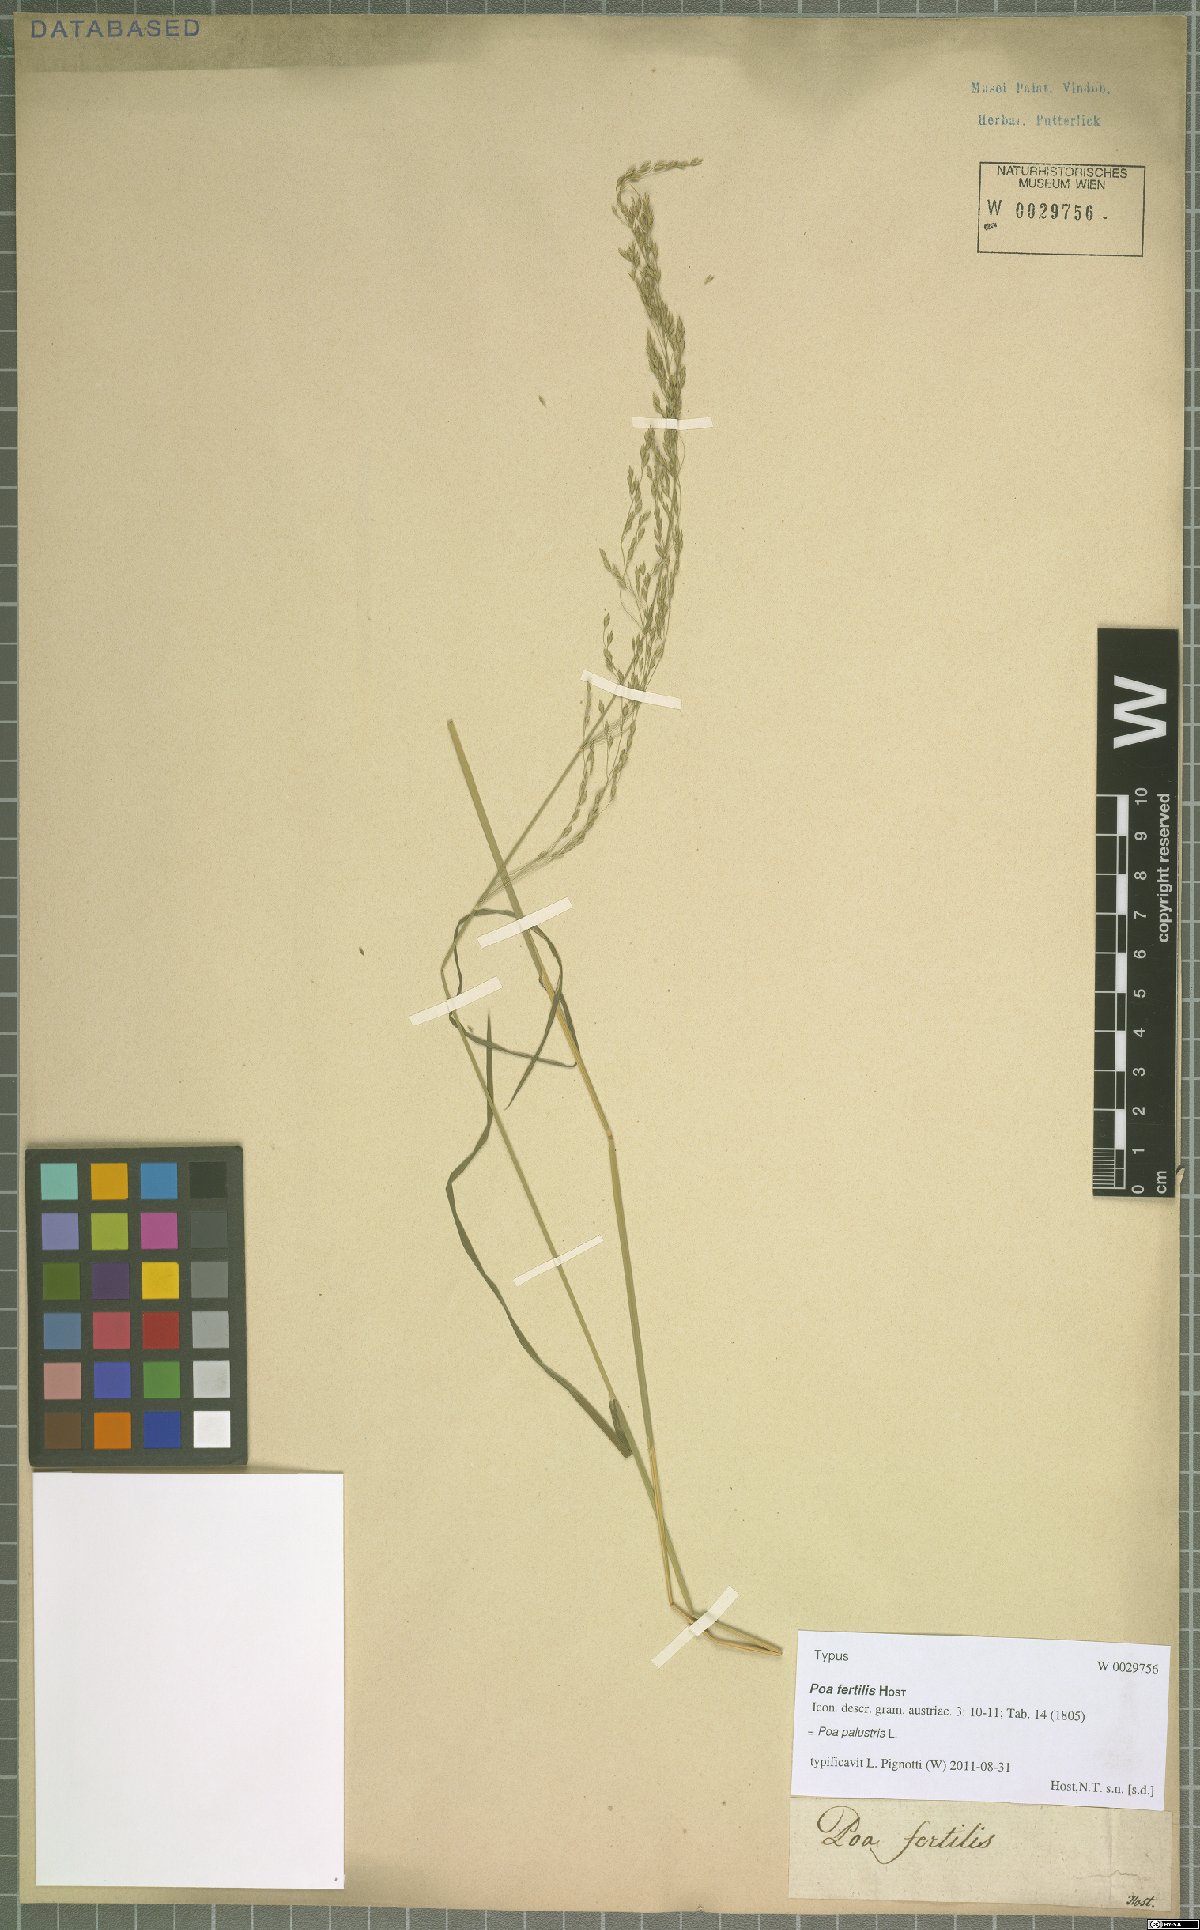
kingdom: Plantae
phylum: Tracheophyta
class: Liliopsida
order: Poales
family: Poaceae
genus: Poa
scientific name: Poa palustris
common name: Swamp meadow-grass
